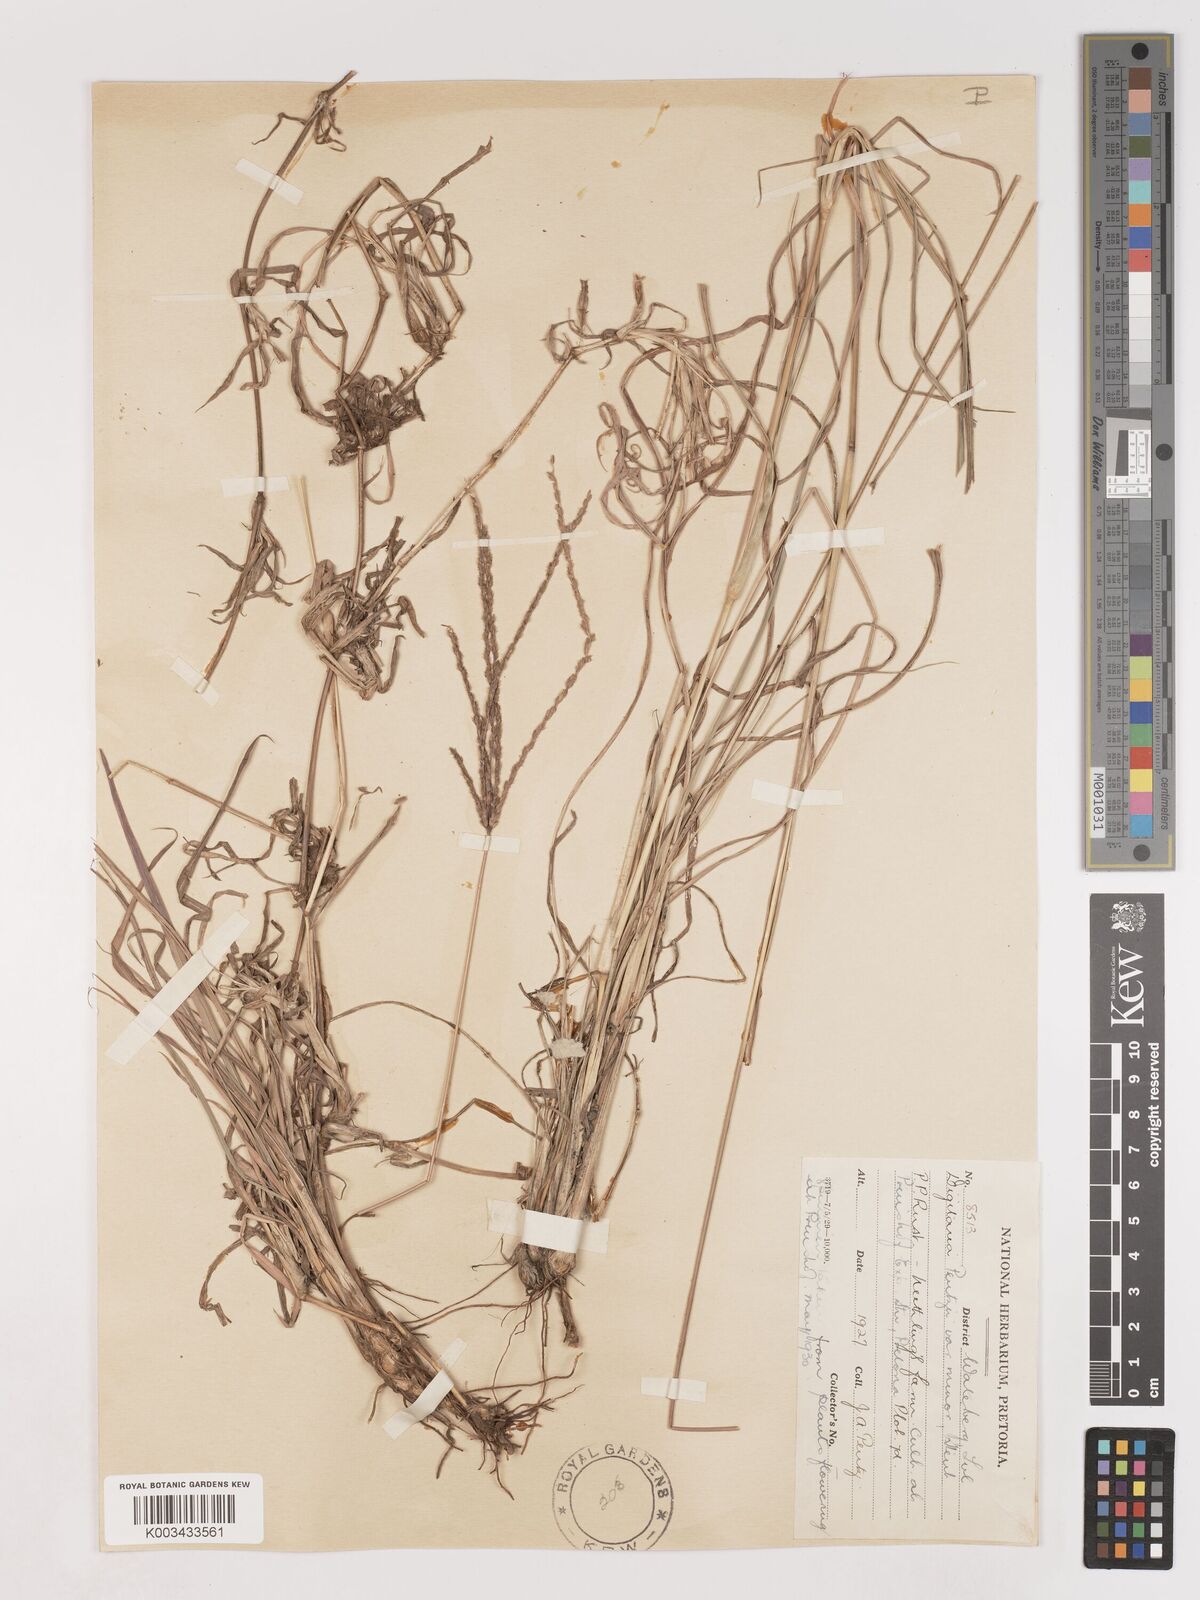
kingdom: Plantae
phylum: Tracheophyta
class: Liliopsida
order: Poales
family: Poaceae
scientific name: Poaceae
